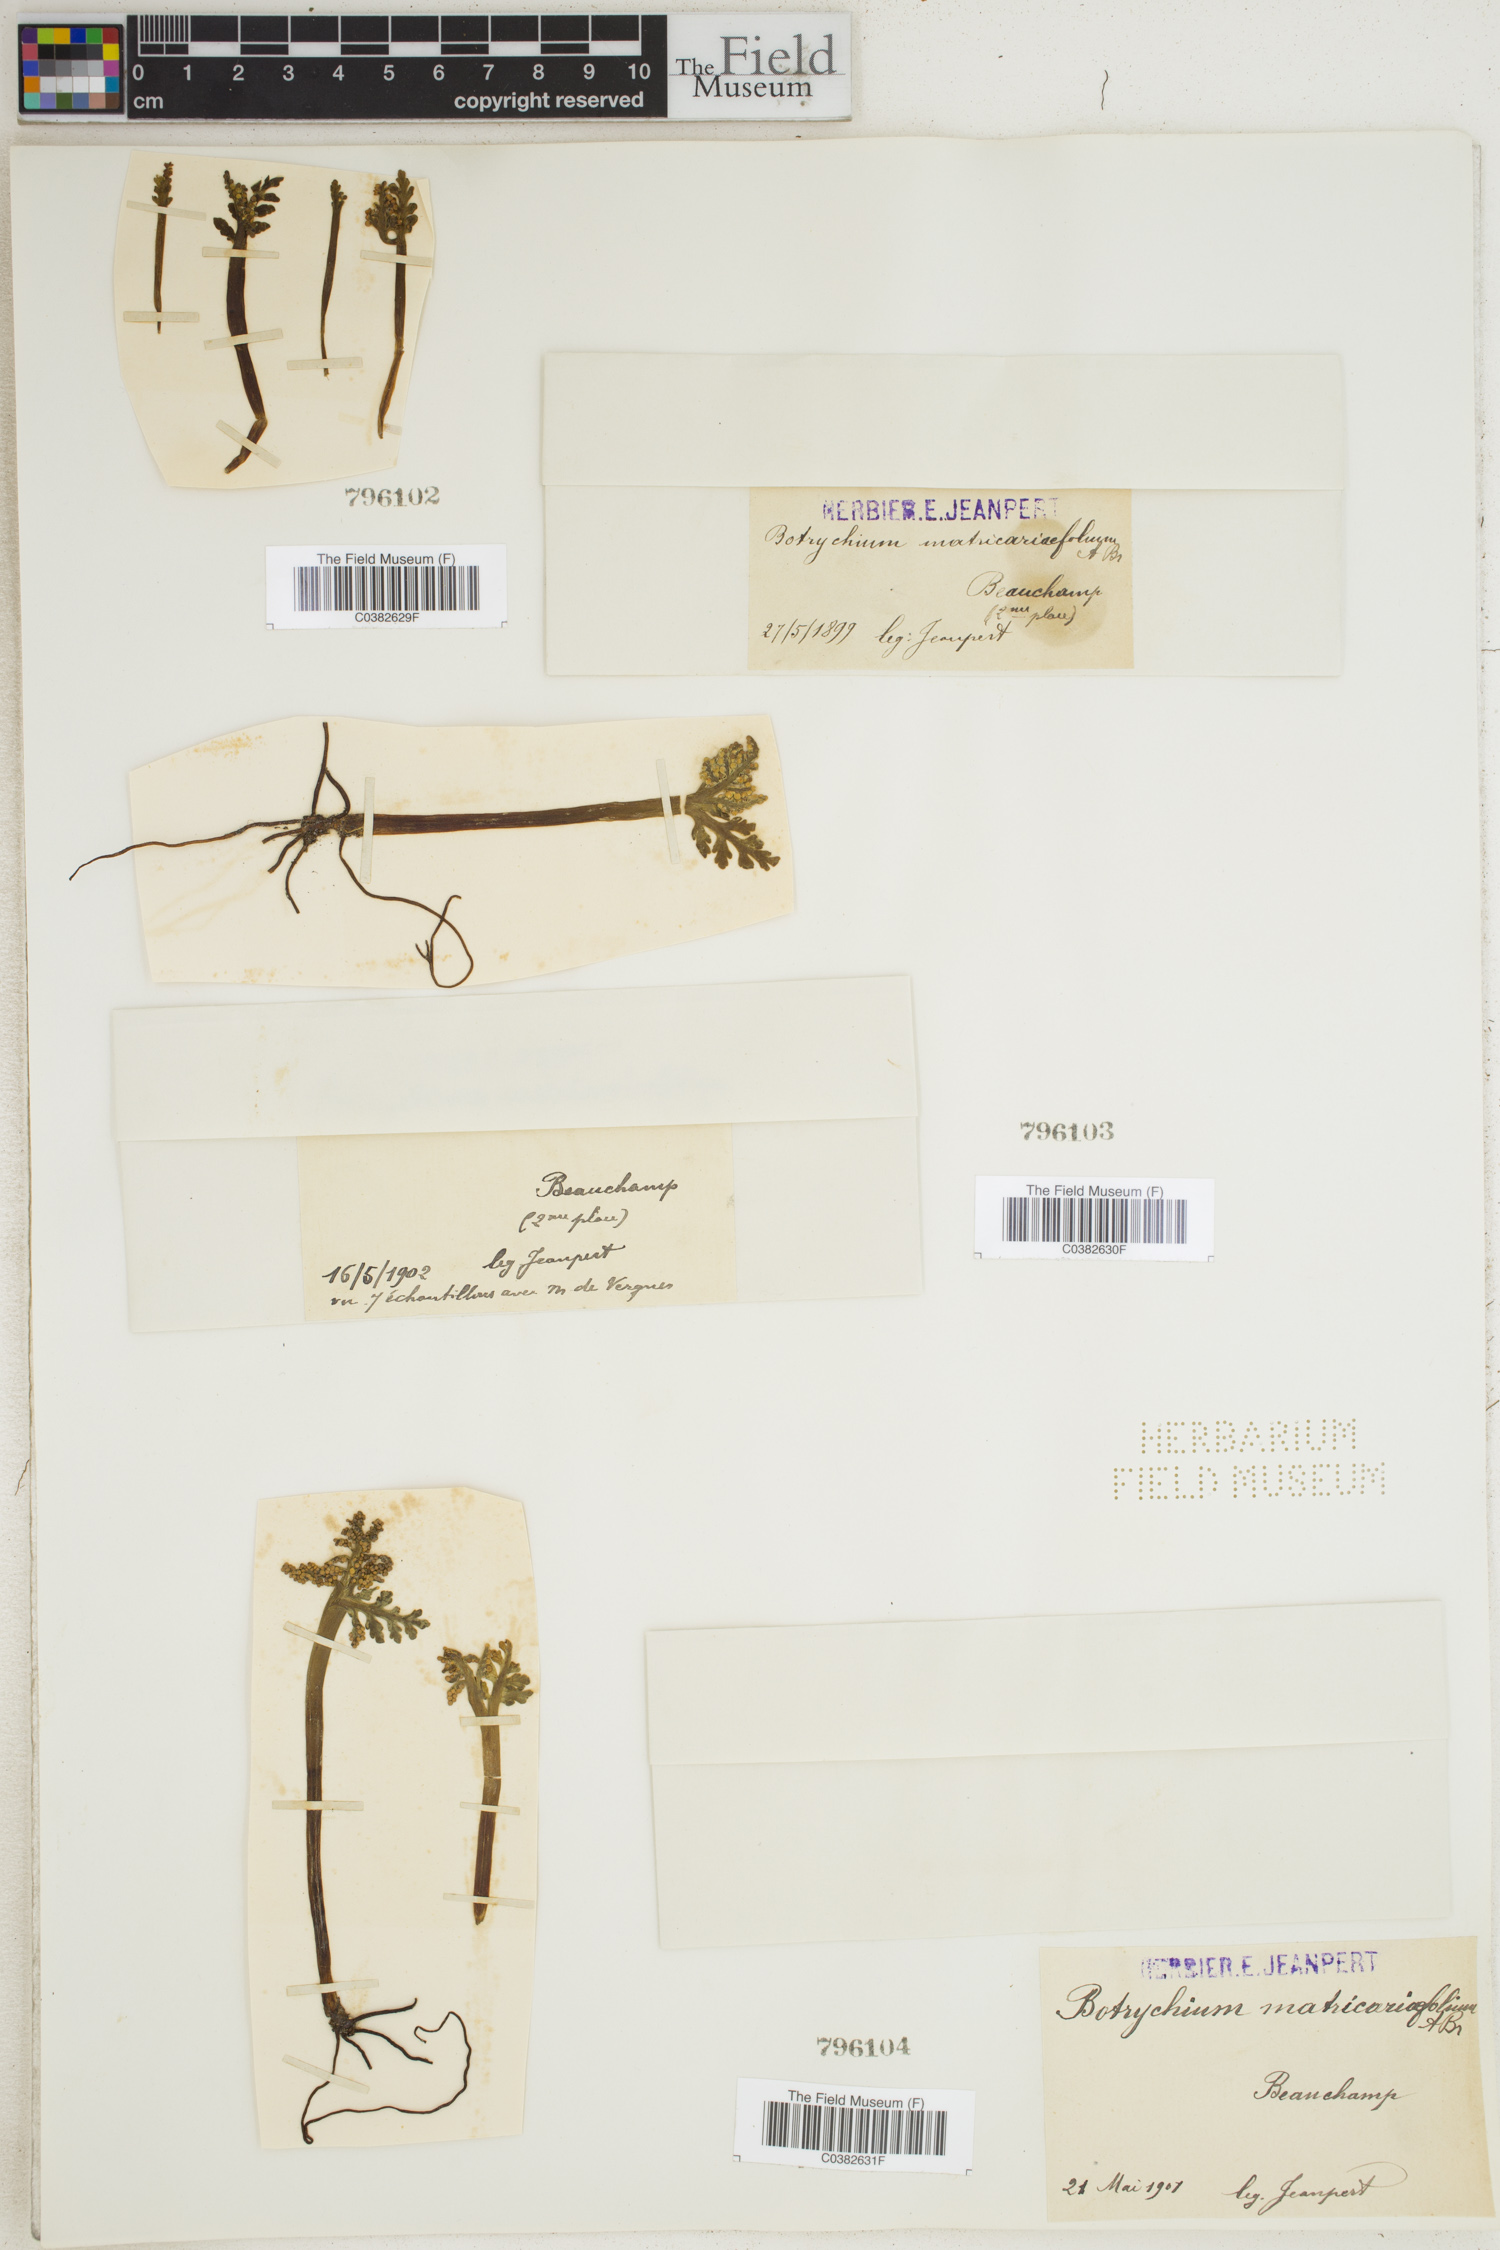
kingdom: Plantae
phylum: Tracheophyta
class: Polypodiopsida
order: Ophioglossales
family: Ophioglossaceae
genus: Botrychium
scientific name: Botrychium matricariifolium
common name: Branched moonwort
